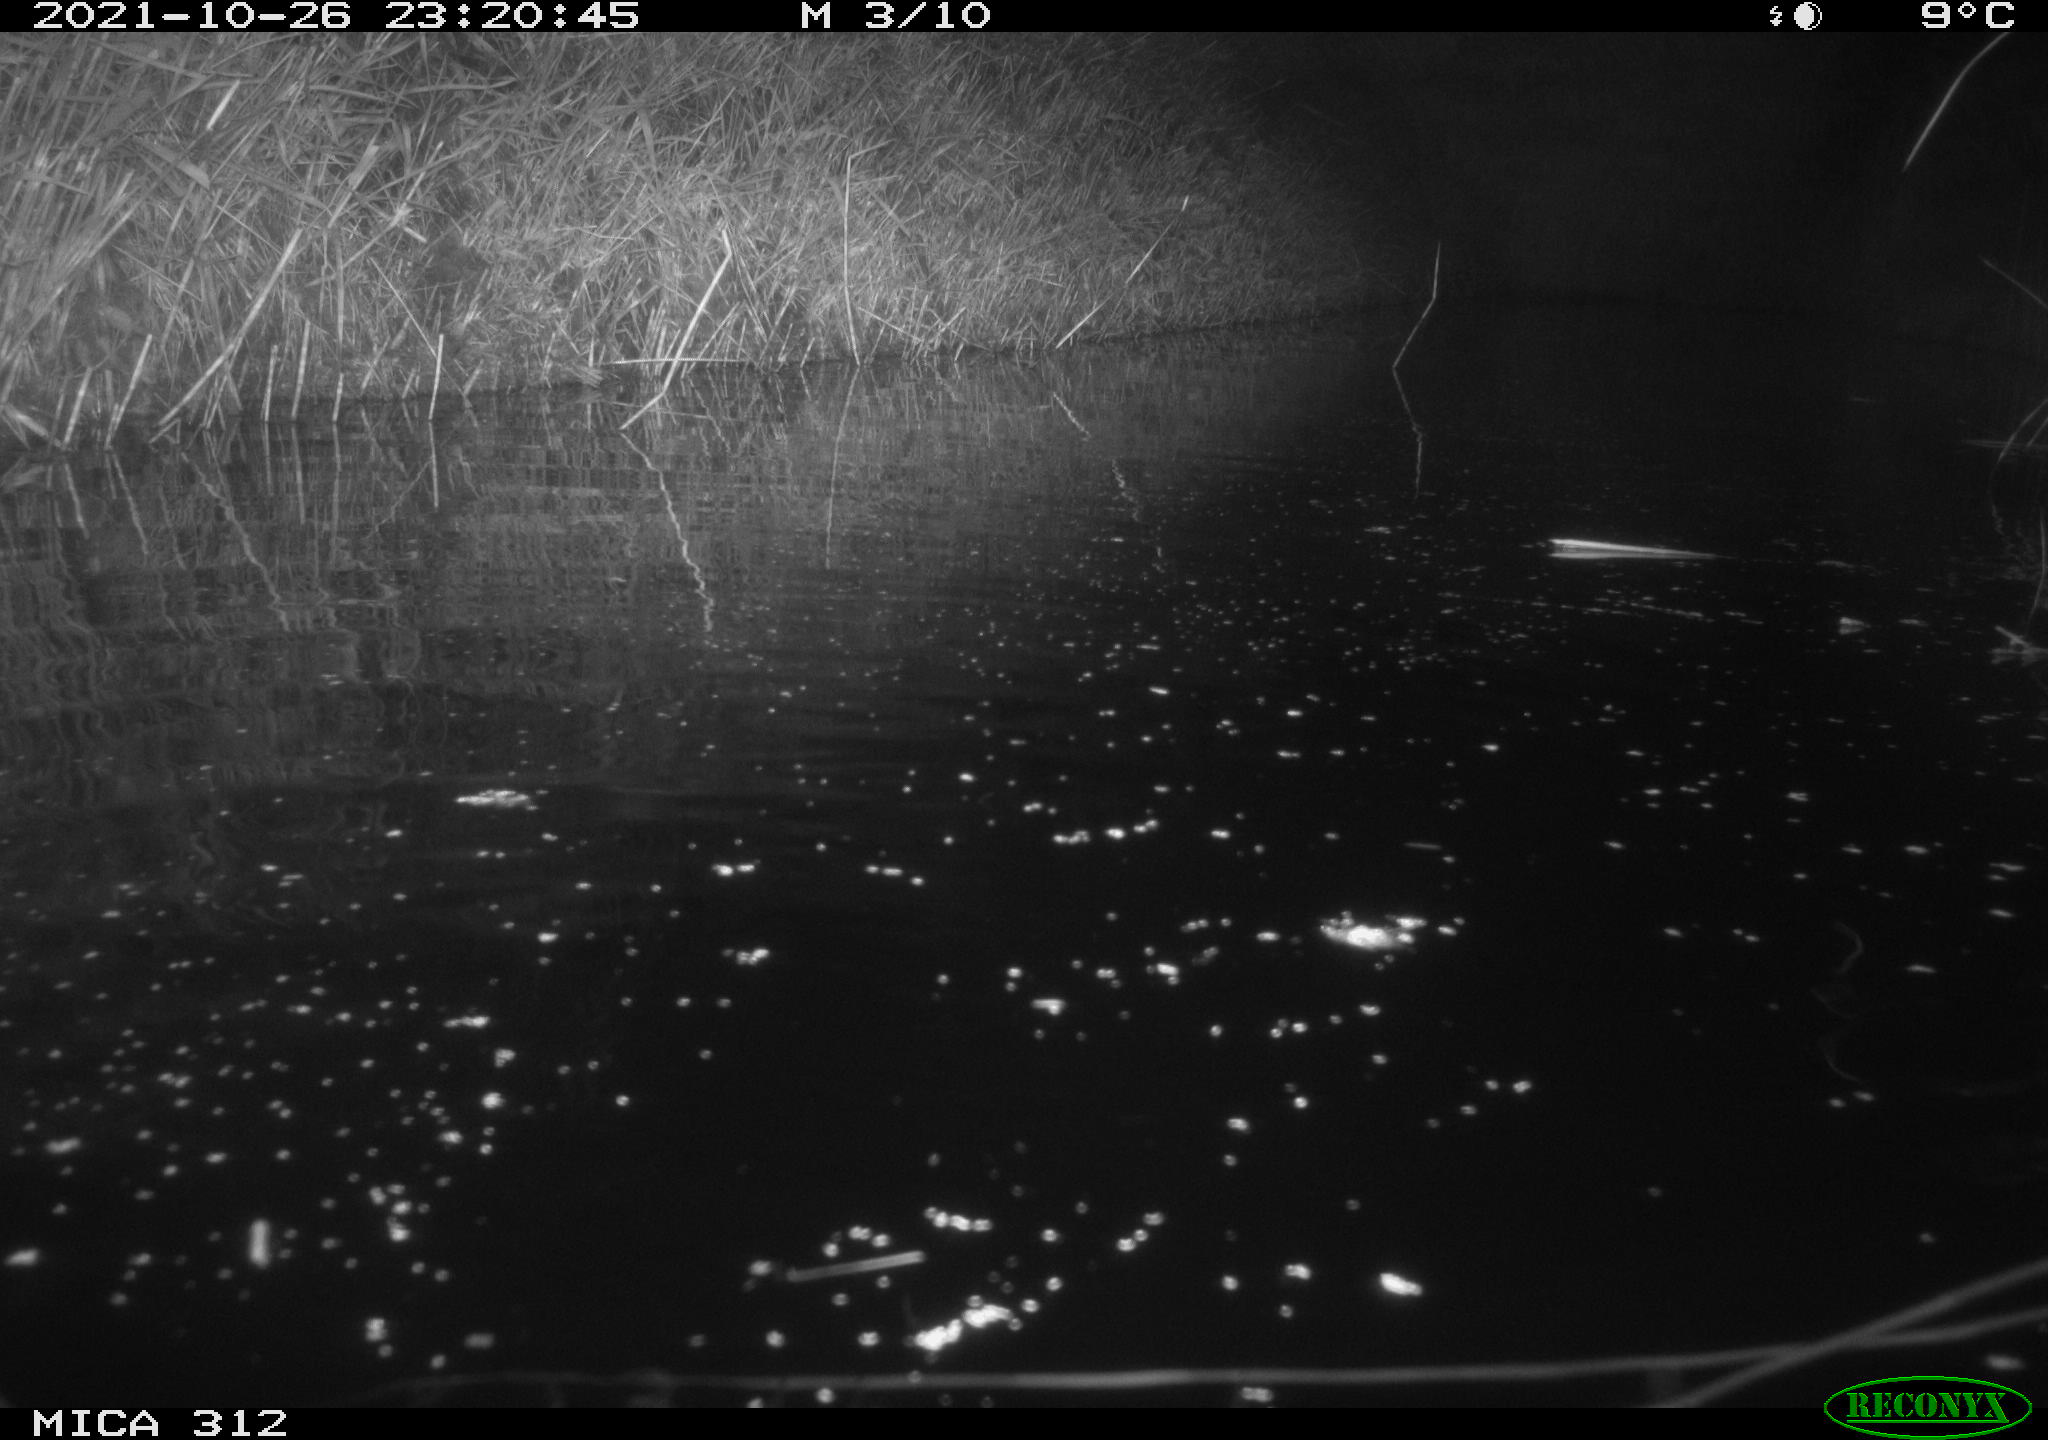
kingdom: Animalia
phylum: Chordata
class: Mammalia
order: Rodentia
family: Muridae
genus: Rattus
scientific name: Rattus norvegicus
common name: Brown rat
